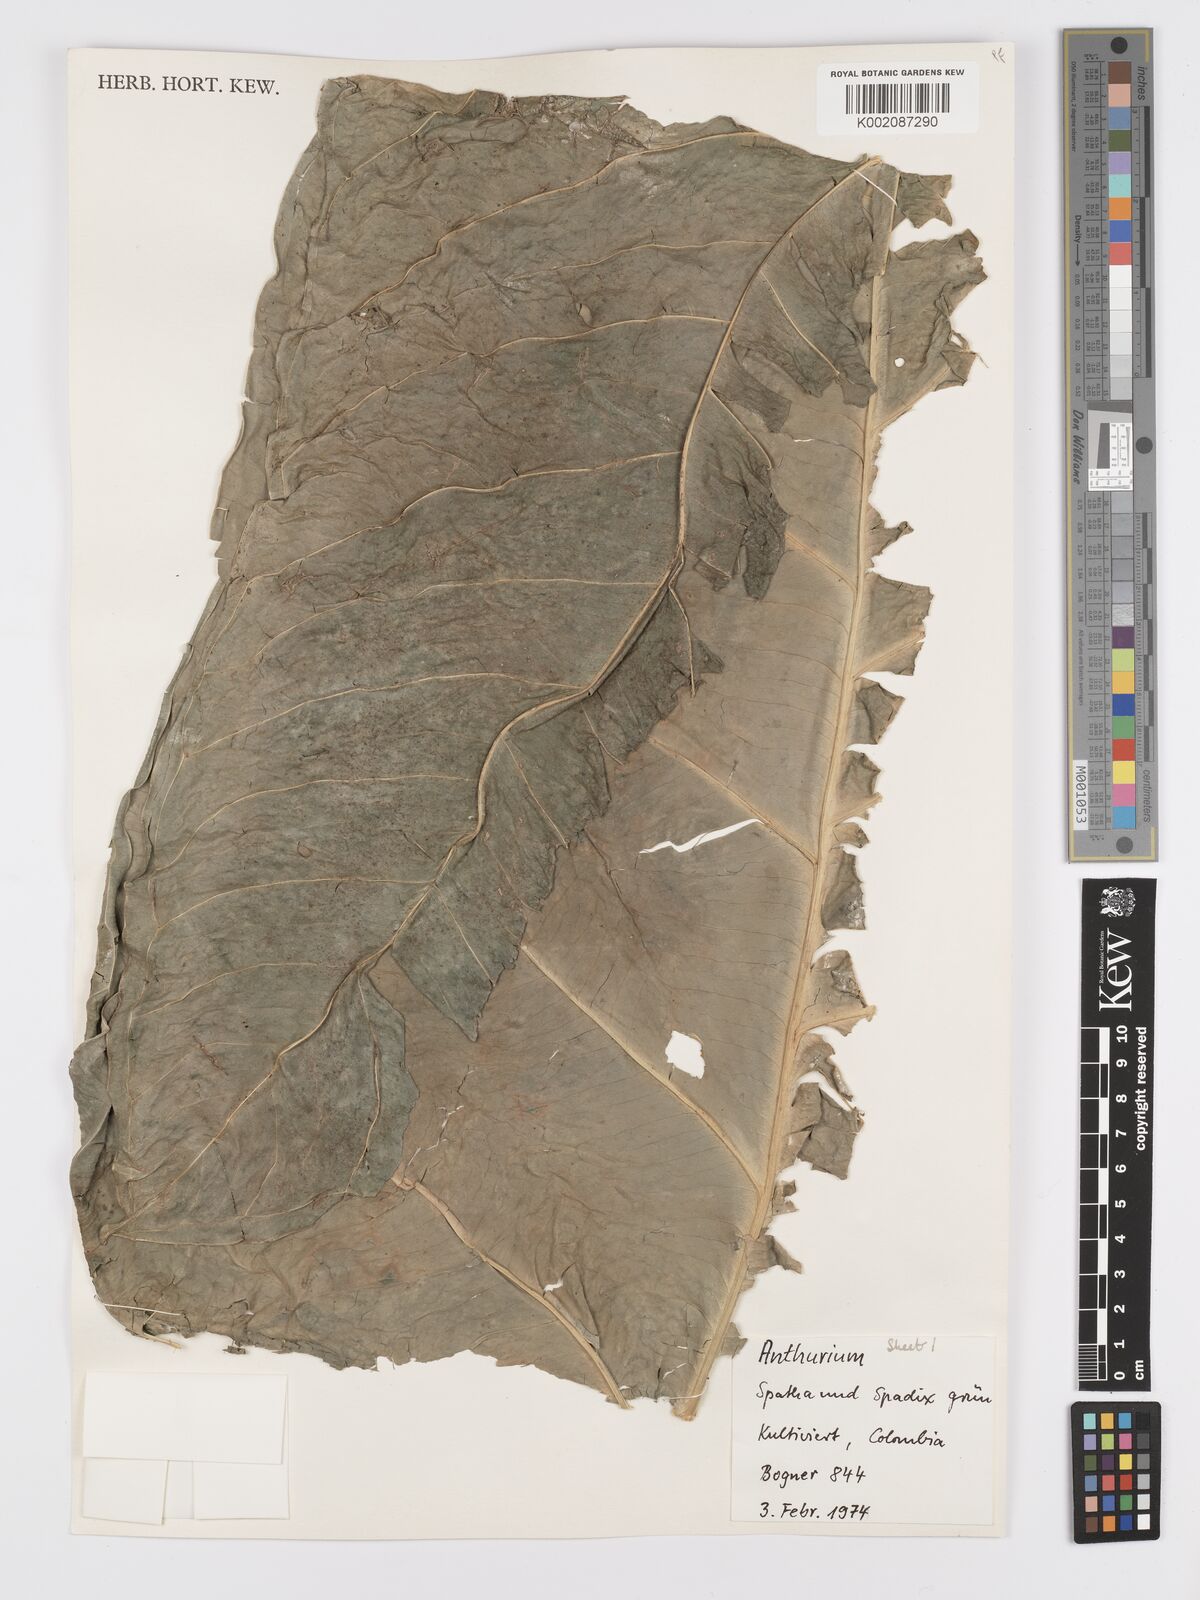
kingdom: Plantae
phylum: Tracheophyta
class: Liliopsida
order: Alismatales
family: Araceae
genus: Anthurium
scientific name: Anthurium
